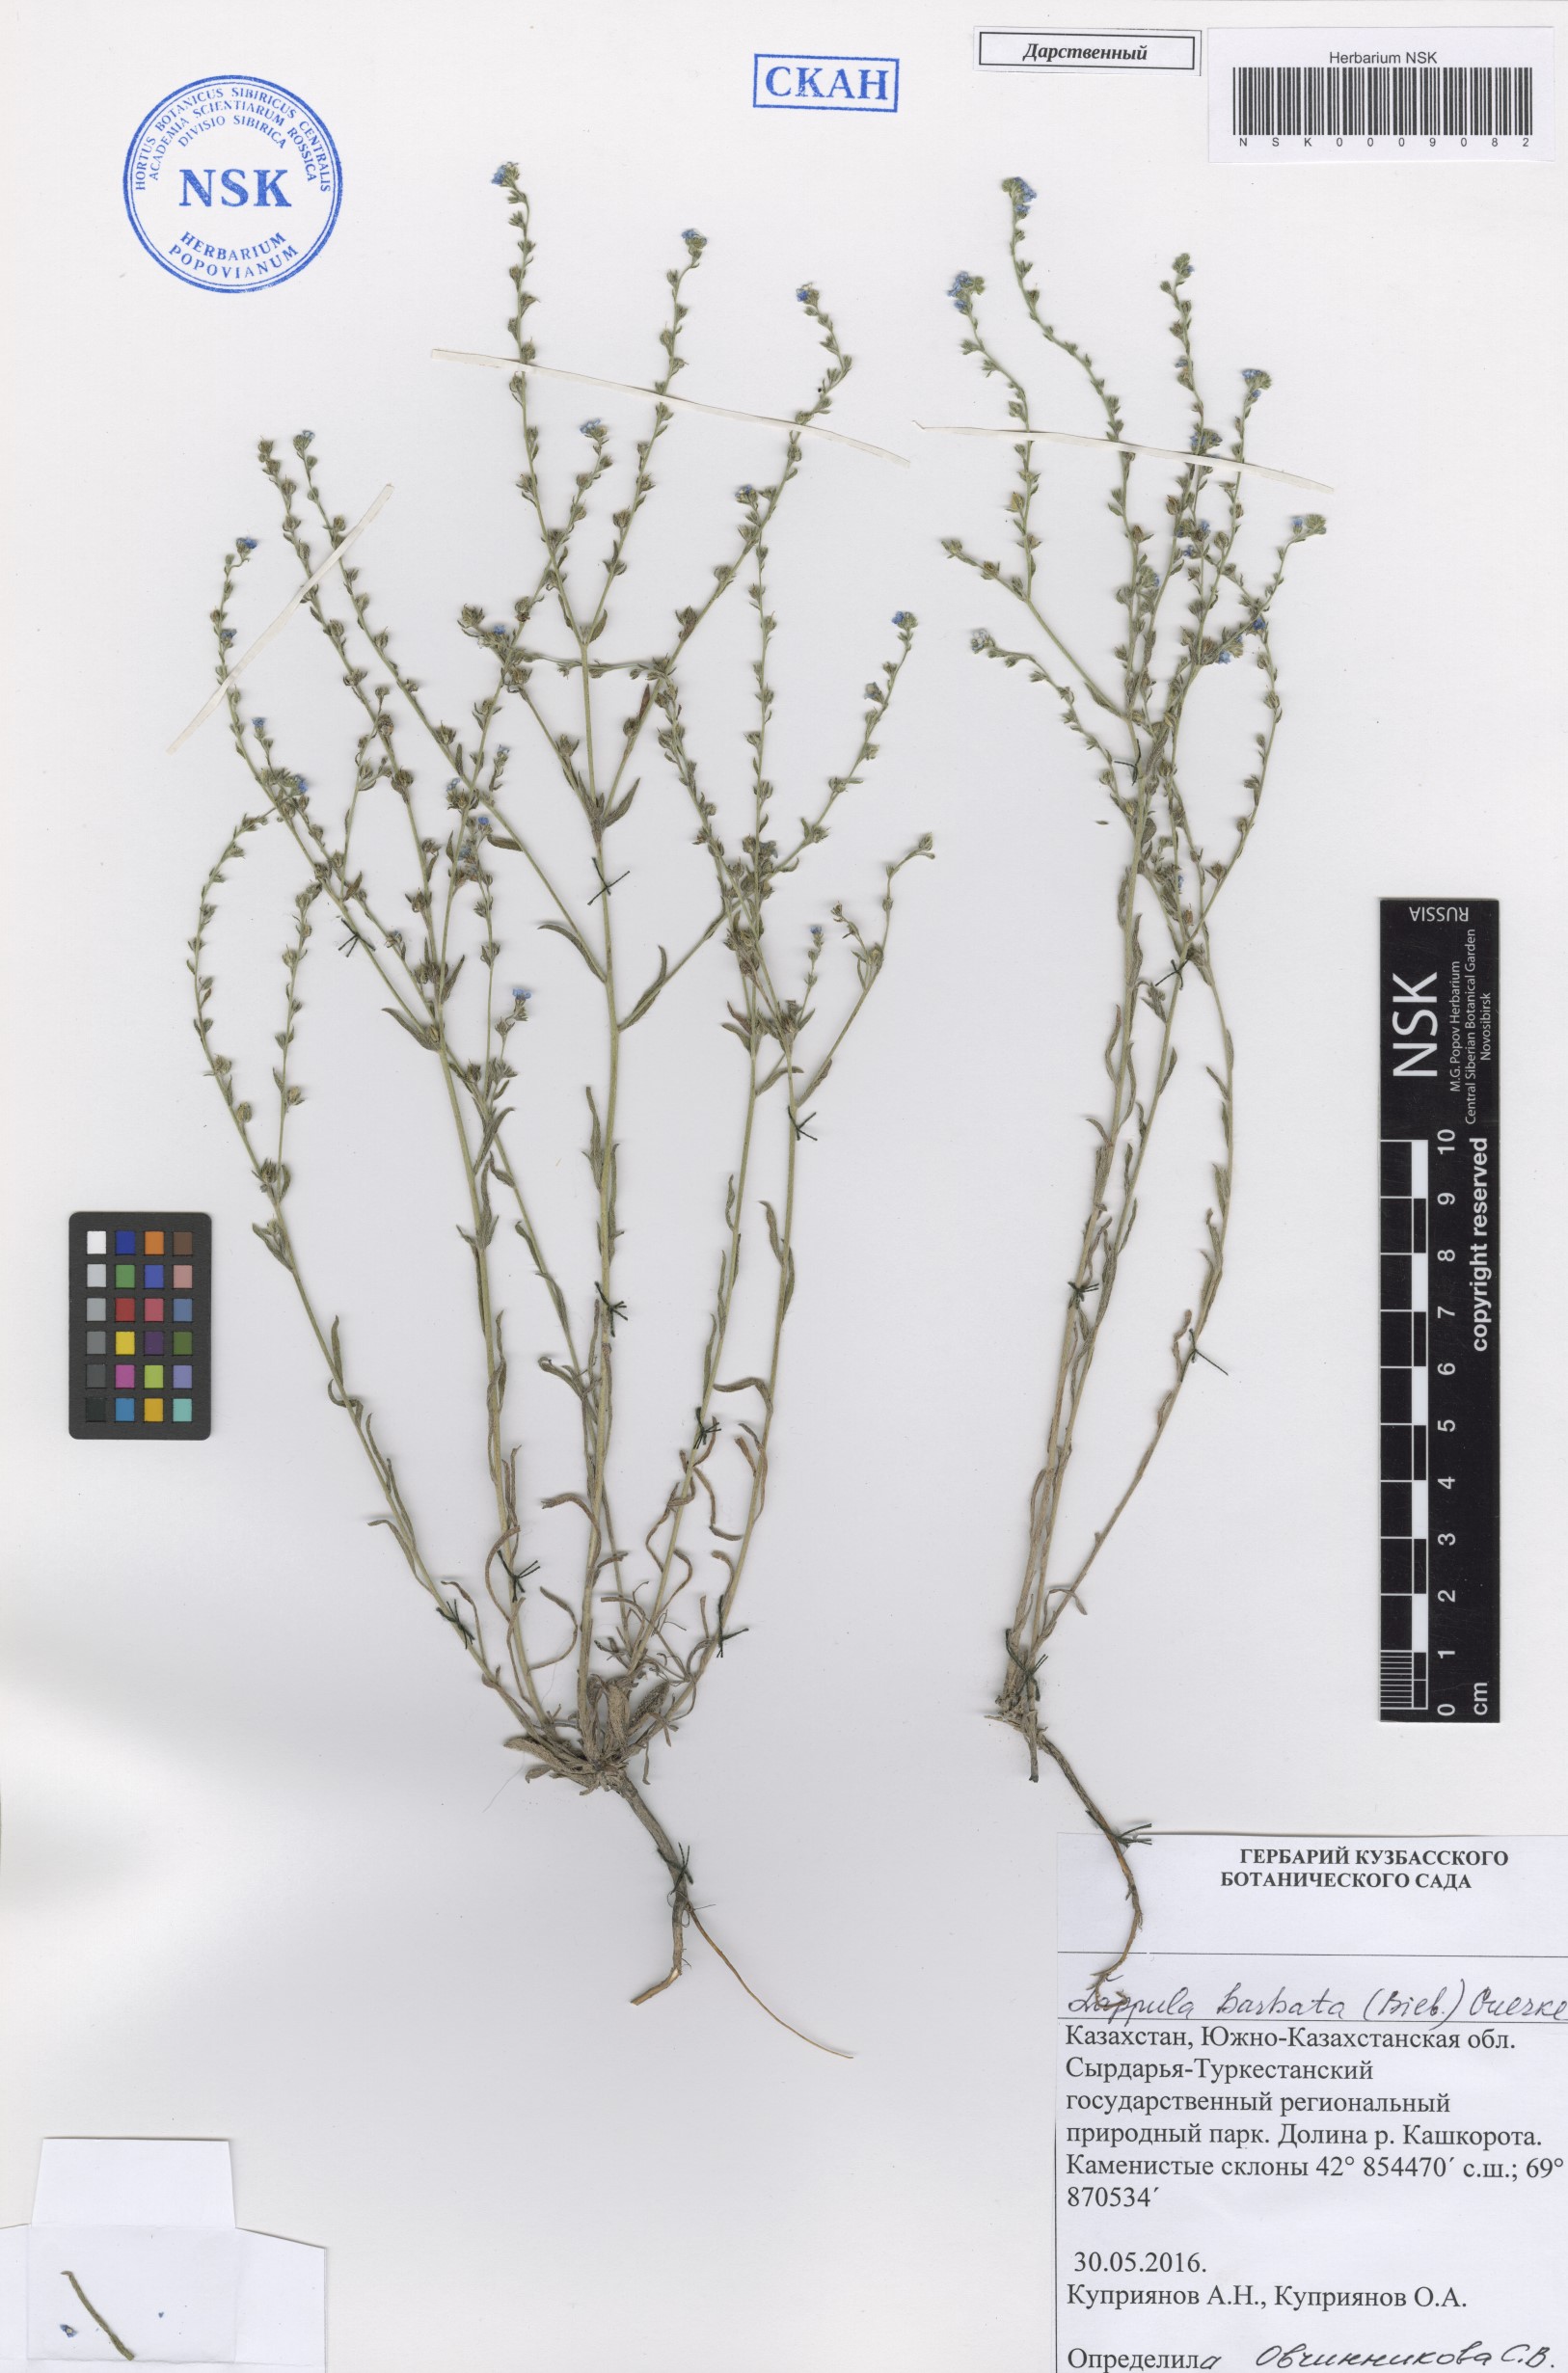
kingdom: Plantae
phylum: Tracheophyta
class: Magnoliopsida
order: Boraginales
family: Boraginaceae
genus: Lappula
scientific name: Lappula barbata
